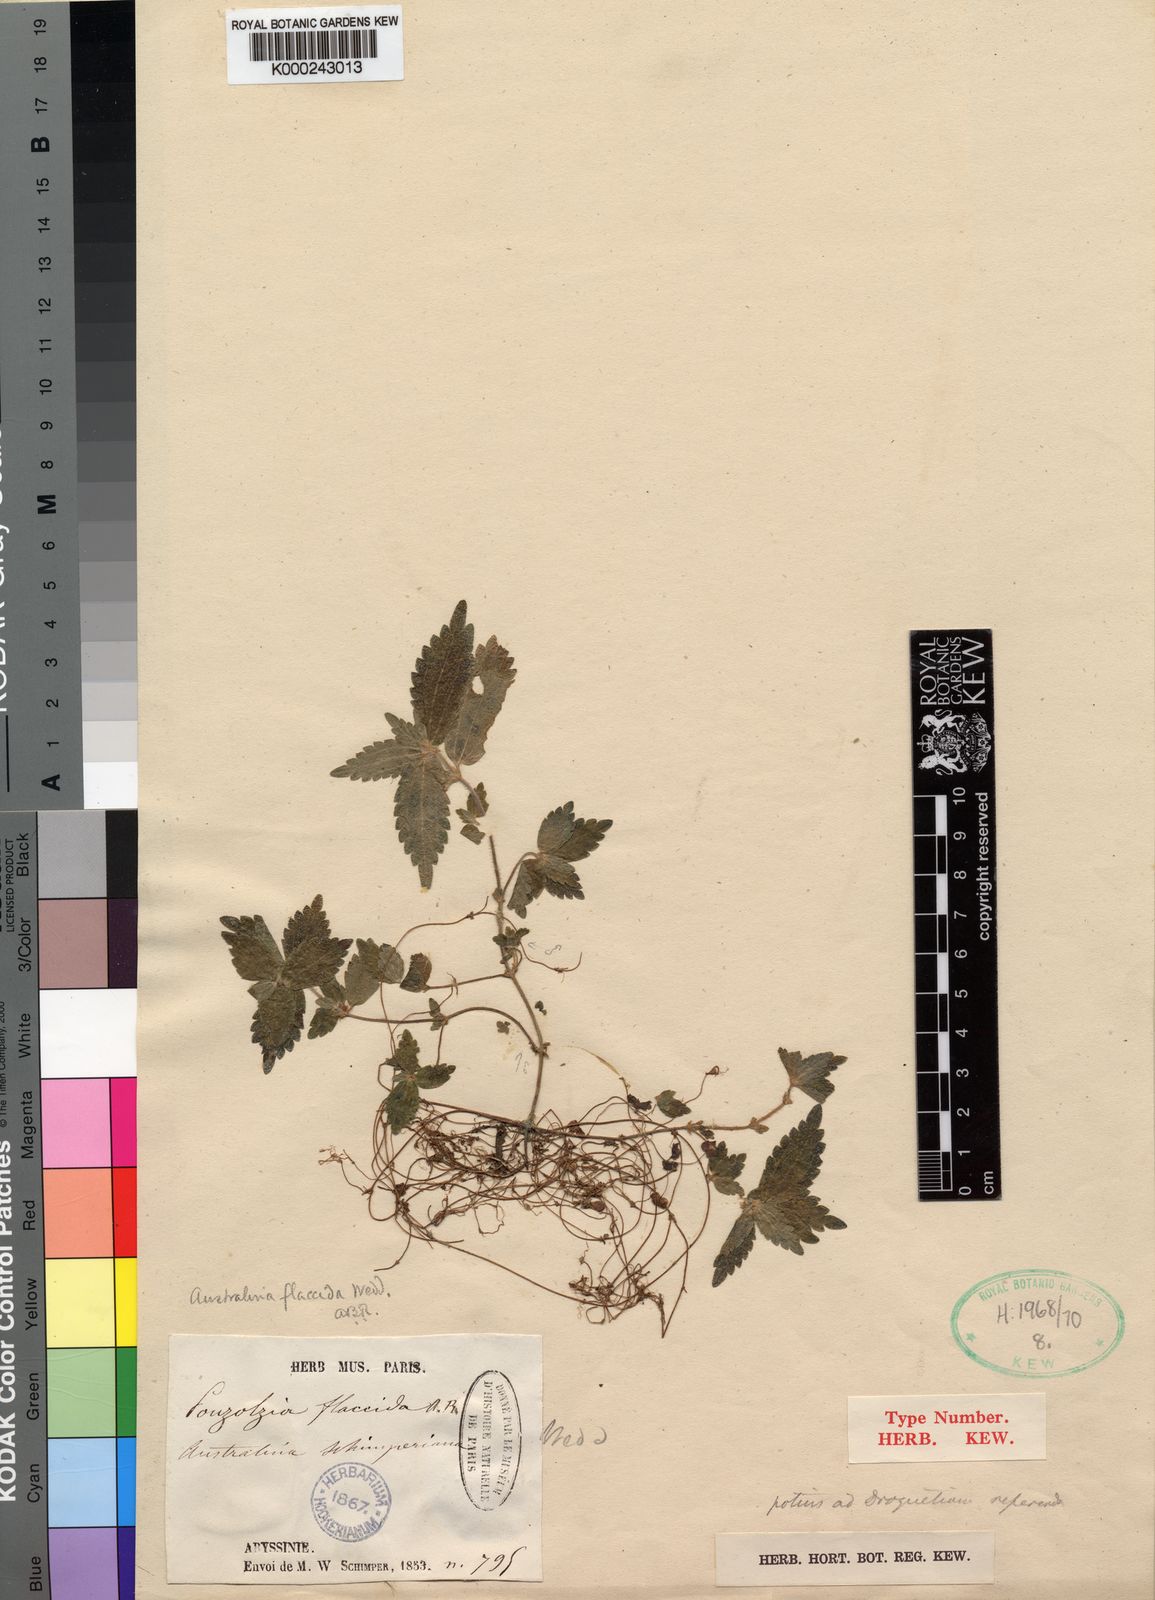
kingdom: Plantae
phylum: Tracheophyta
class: Magnoliopsida
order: Rosales
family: Urticaceae
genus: Australina
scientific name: Australina flaccida
